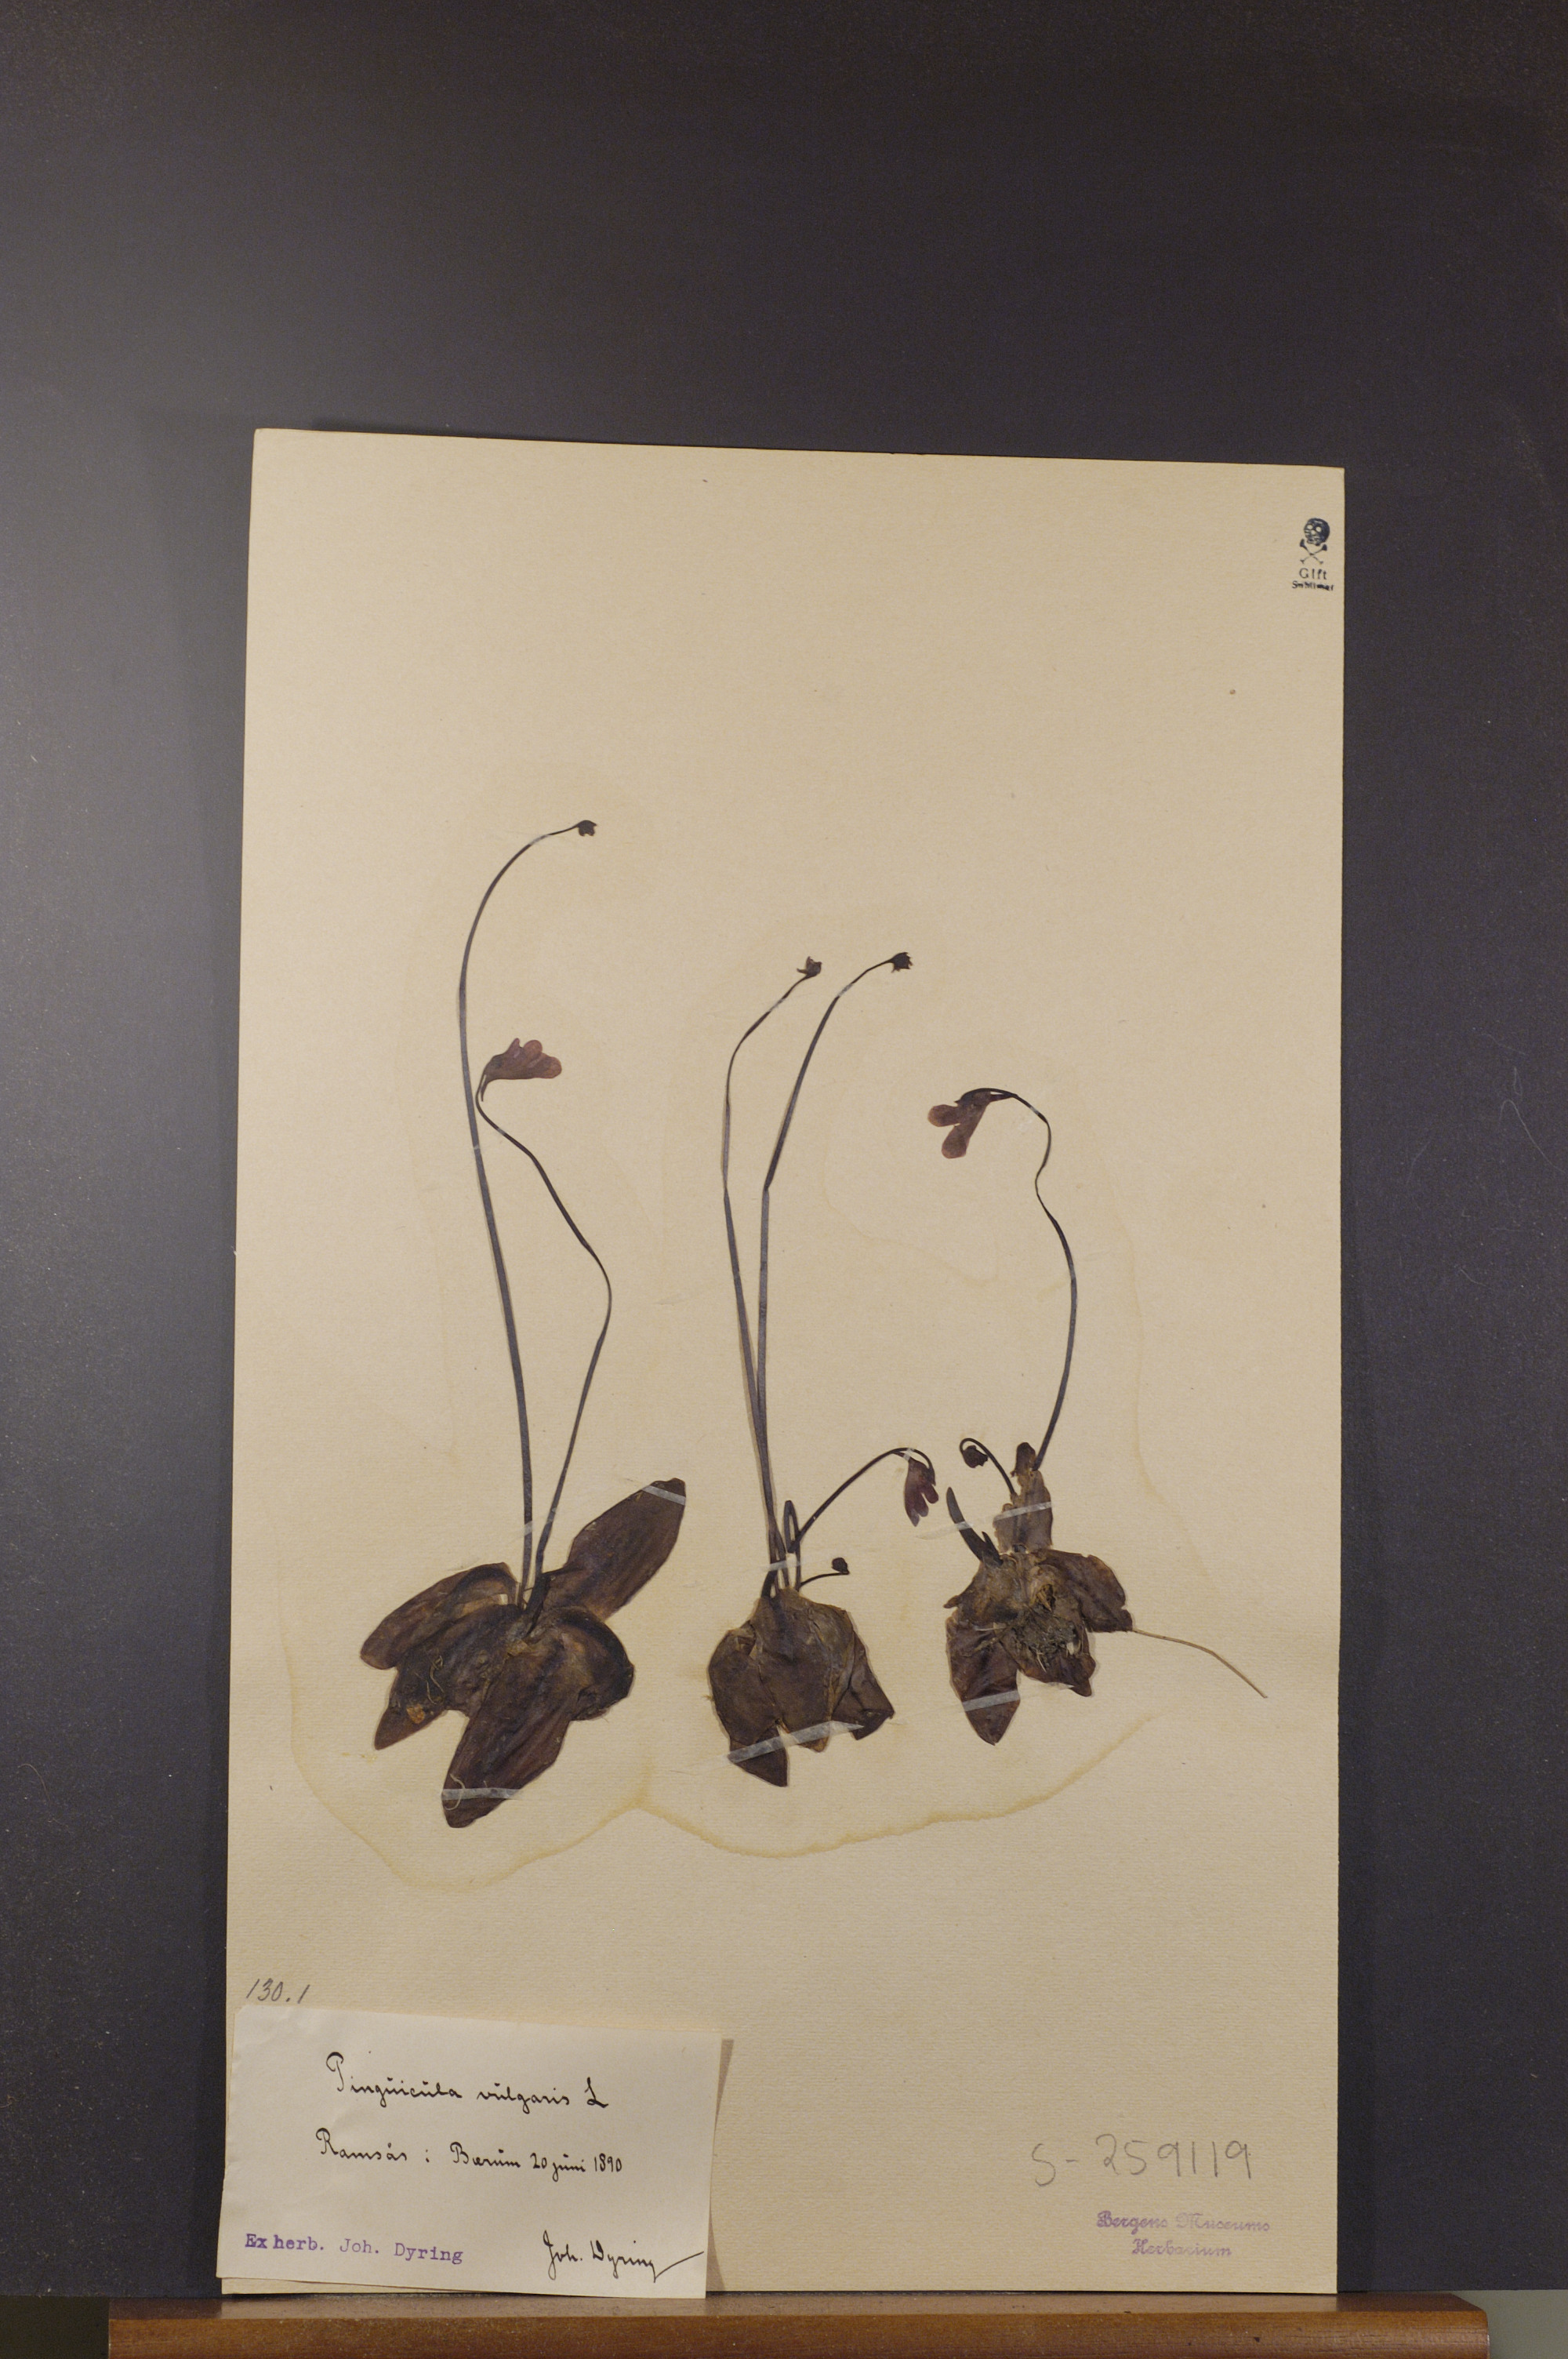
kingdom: Plantae
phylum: Tracheophyta
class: Magnoliopsida
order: Lamiales
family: Lentibulariaceae
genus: Pinguicula
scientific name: Pinguicula vulgaris
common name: Common butterwort
